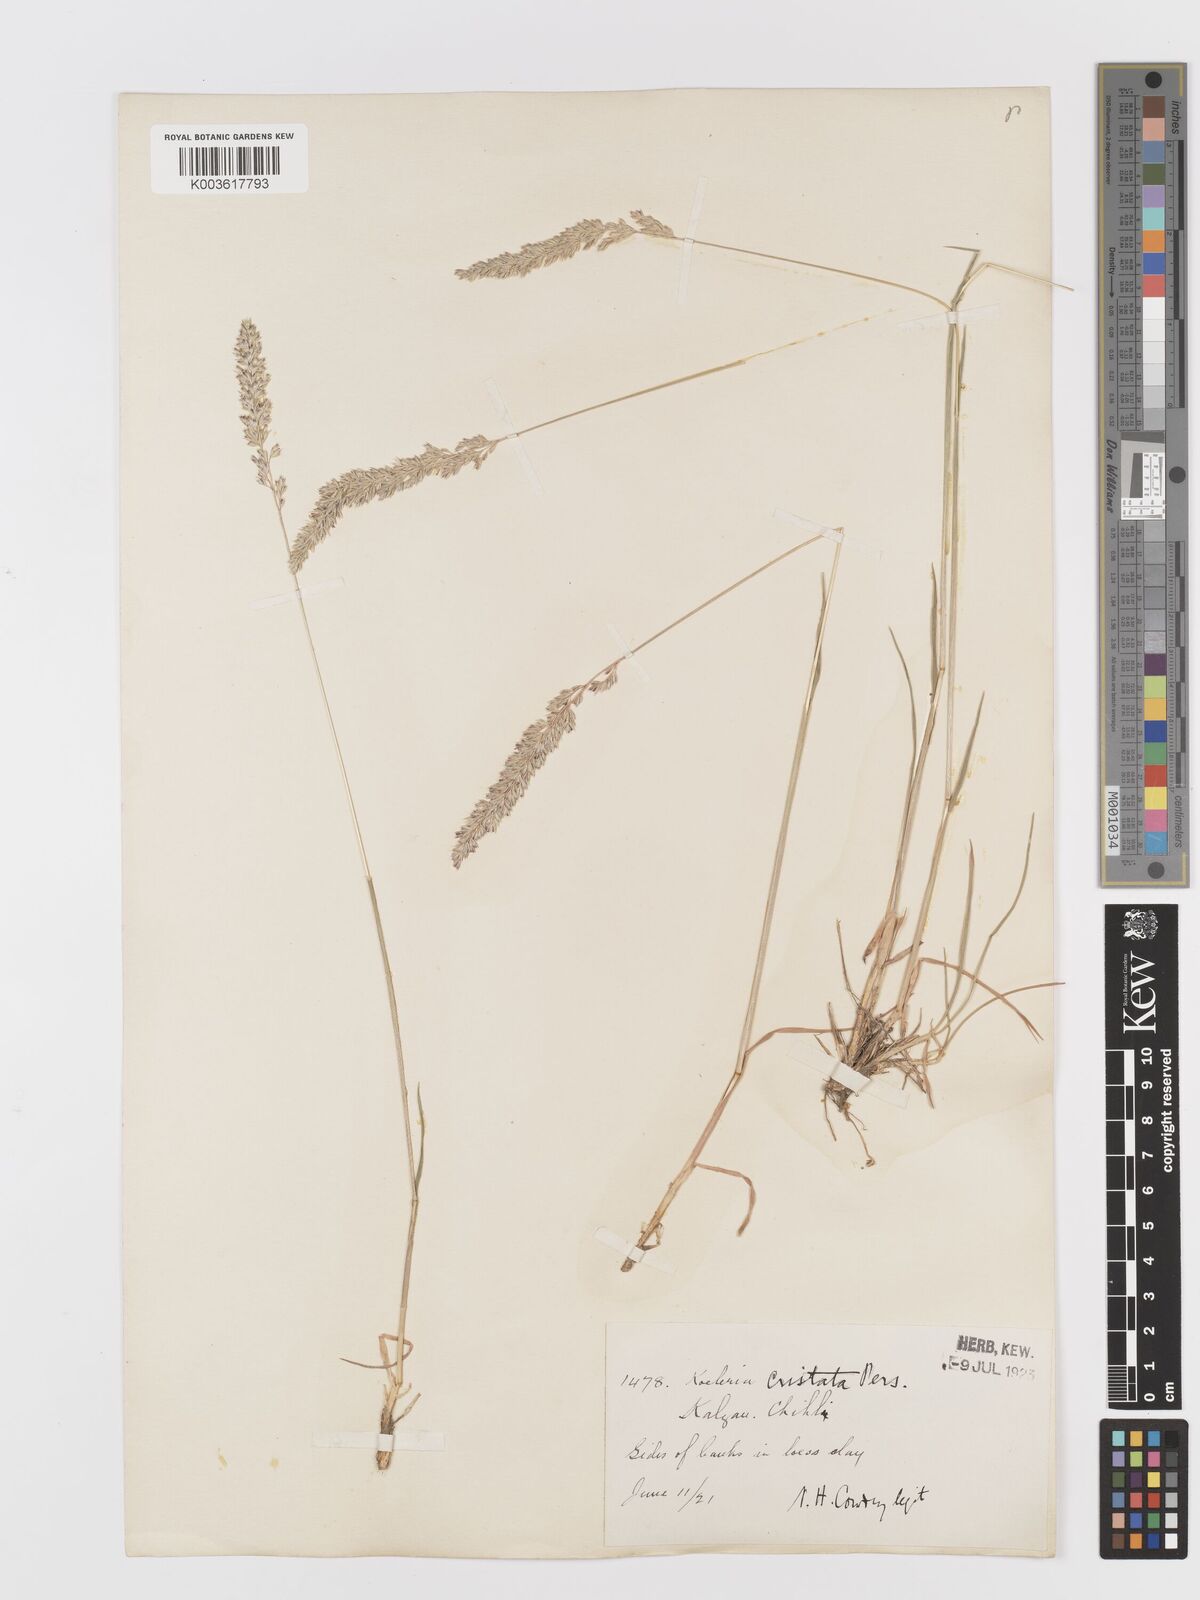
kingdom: Plantae
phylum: Tracheophyta
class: Liliopsida
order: Poales
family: Poaceae
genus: Koeleria
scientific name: Koeleria macrantha
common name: Crested hair-grass
